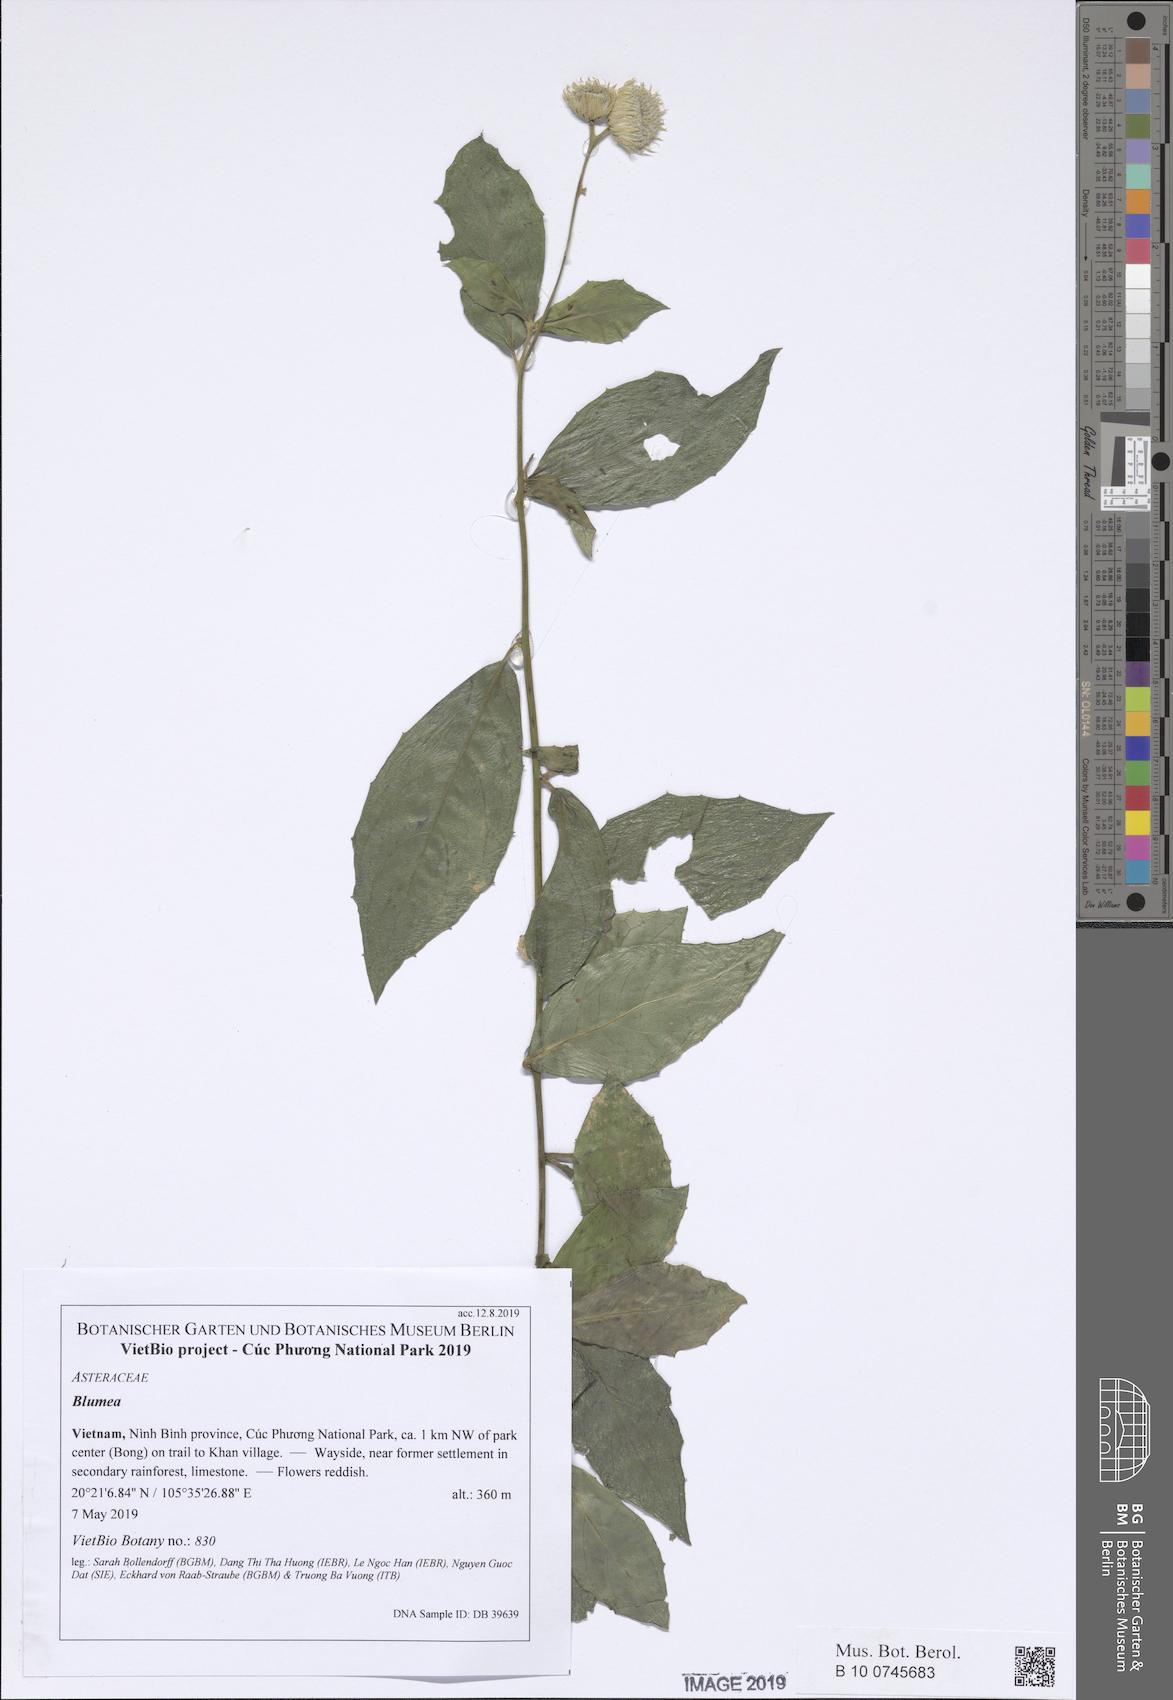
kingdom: Plantae
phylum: Tracheophyta
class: Magnoliopsida
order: Asterales
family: Asteraceae
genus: Vernonia
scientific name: Vernonia
